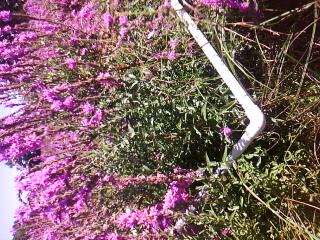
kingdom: Plantae
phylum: Tracheophyta
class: Magnoliopsida
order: Myrtales
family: Lythraceae
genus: Lythrum
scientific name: Lythrum salicaria
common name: Purple loosestrife
